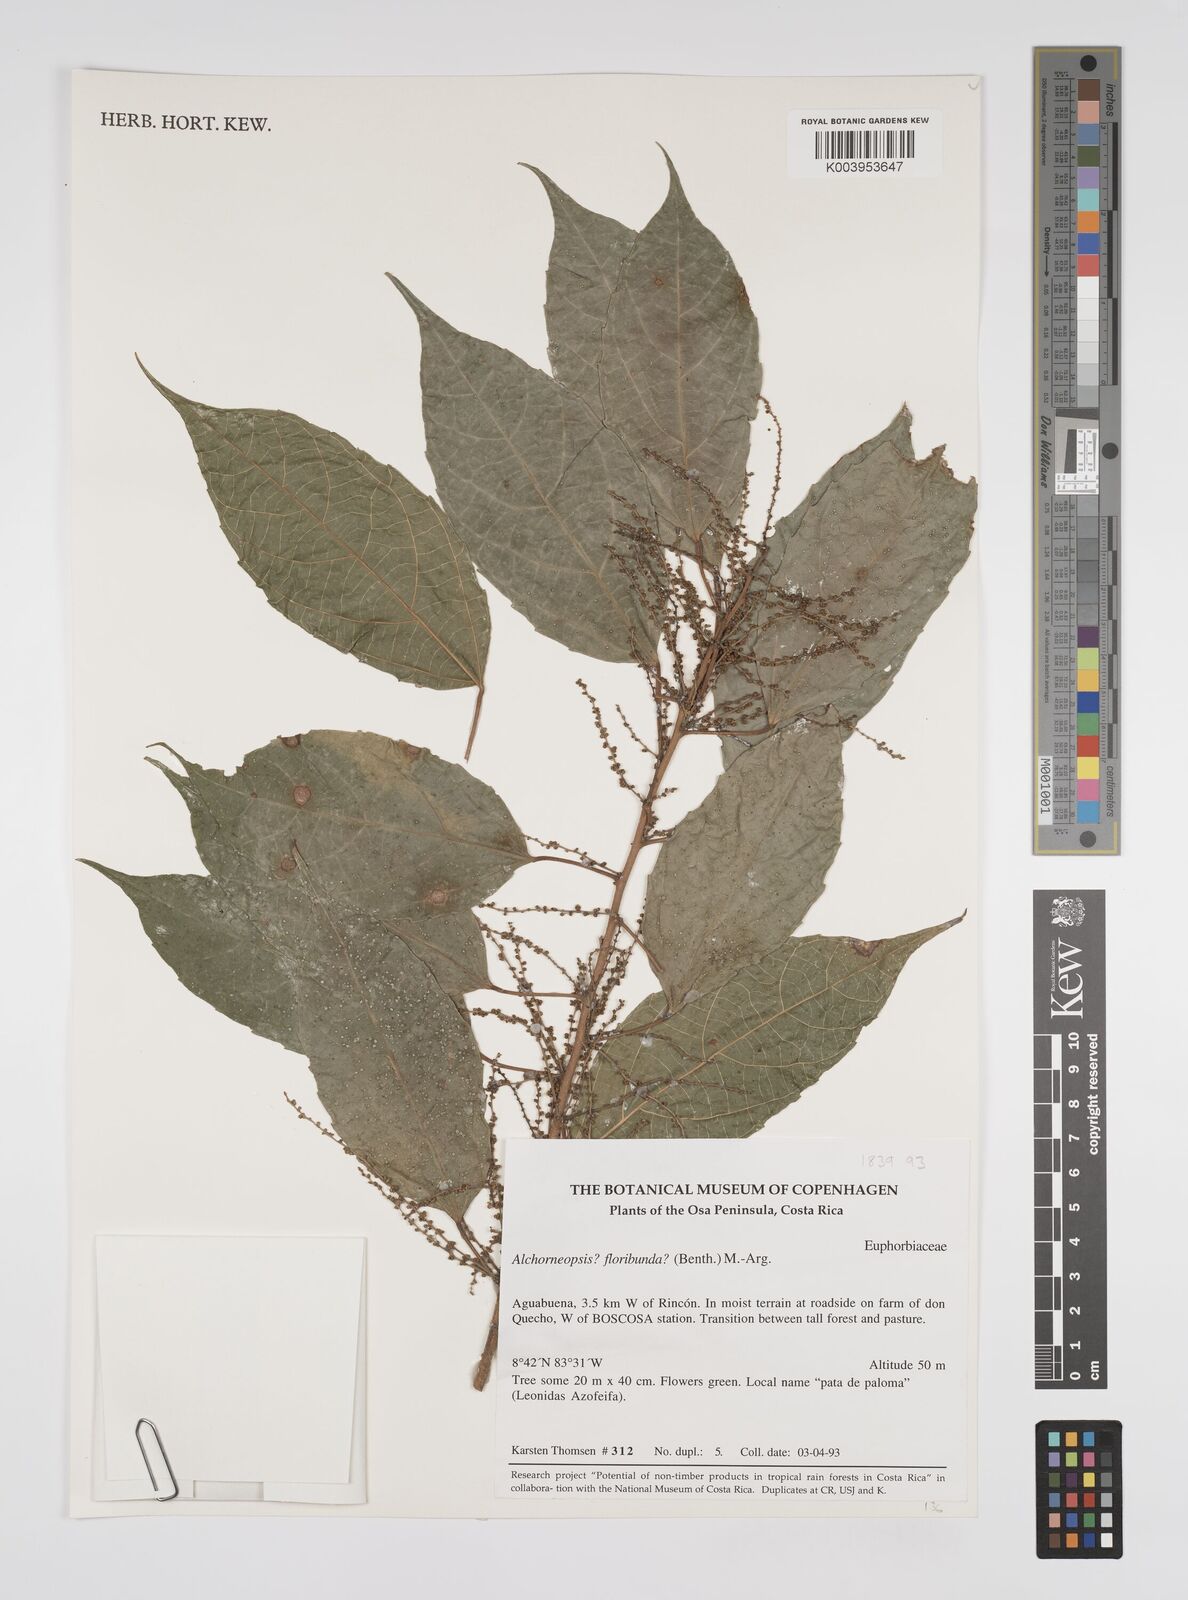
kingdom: Plantae
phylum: Tracheophyta
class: Magnoliopsida
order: Malpighiales
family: Euphorbiaceae
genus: Alchorneopsis
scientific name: Alchorneopsis floribunda
